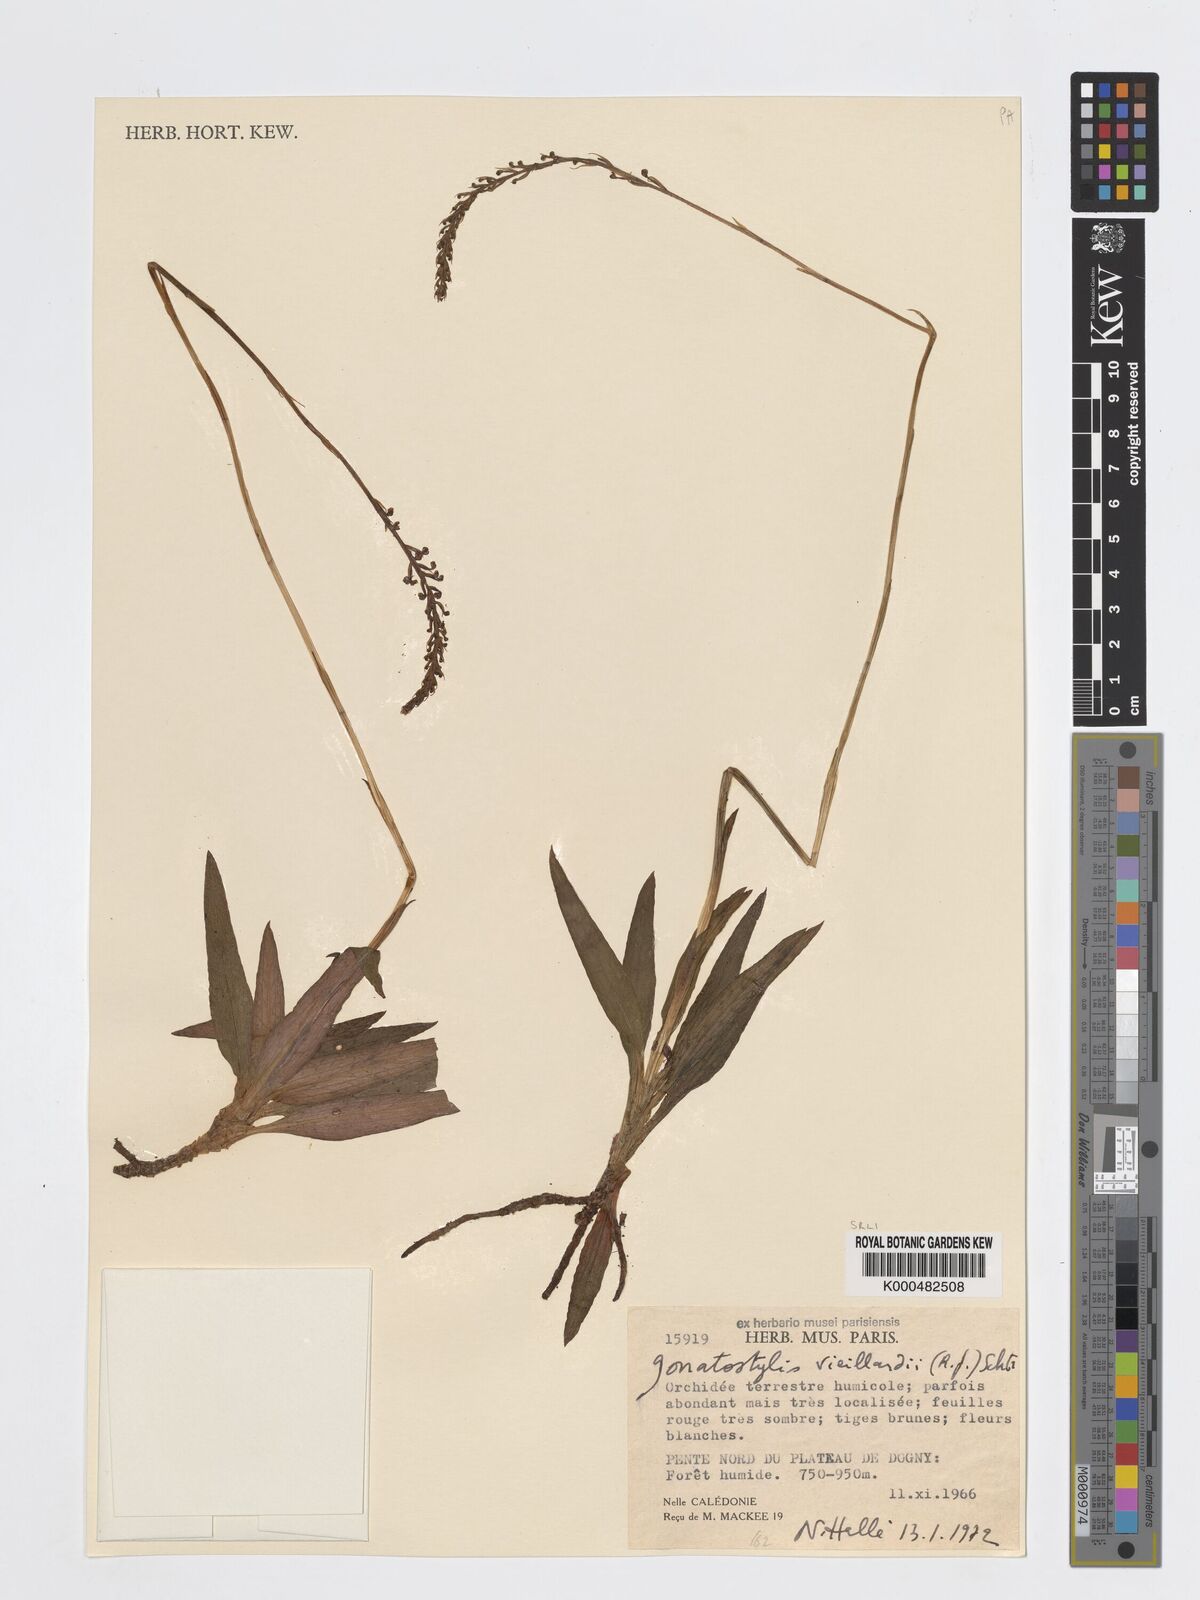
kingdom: Plantae
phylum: Tracheophyta
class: Liliopsida
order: Asparagales
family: Orchidaceae
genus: Gonatostylis
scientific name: Gonatostylis vieillardii
